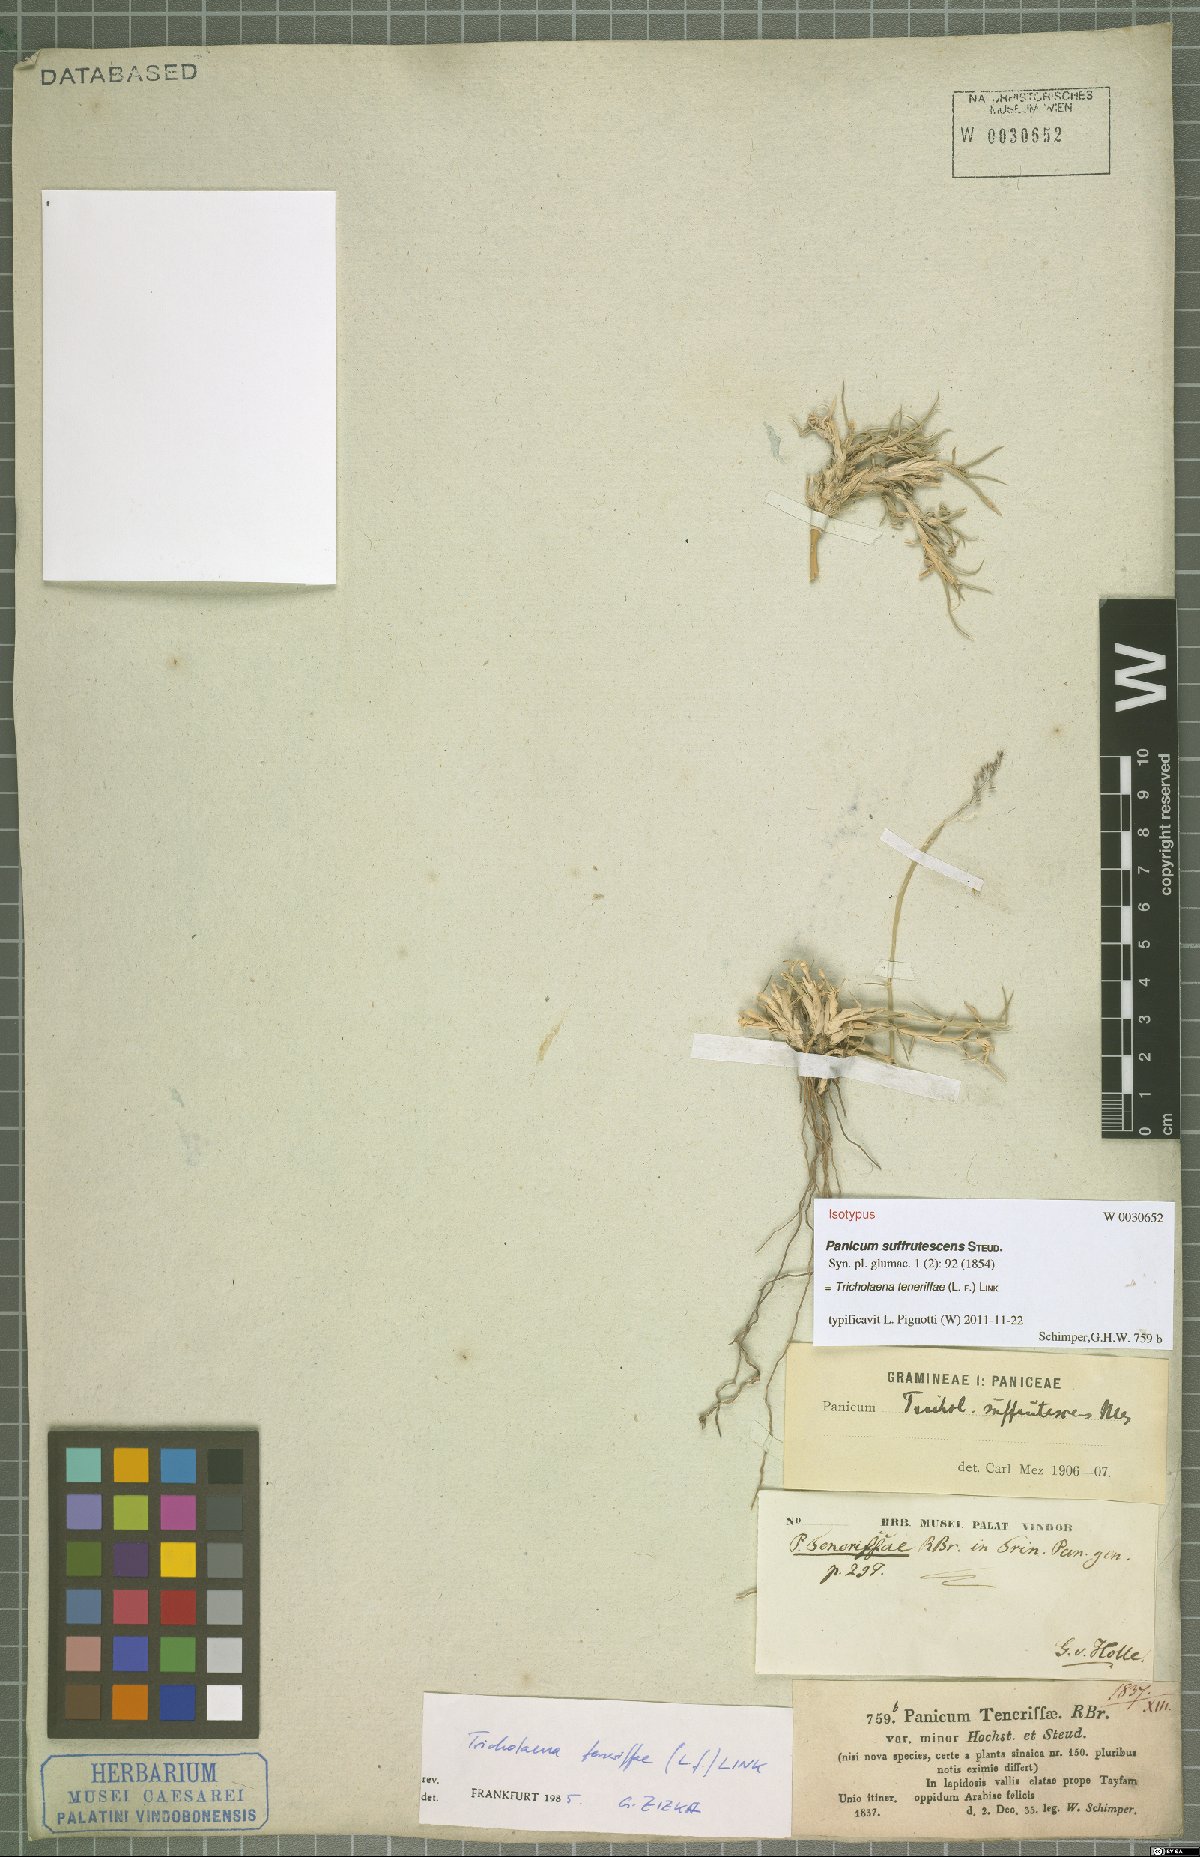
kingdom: Plantae
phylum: Tracheophyta
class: Liliopsida
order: Poales
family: Poaceae
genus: Tricholaena
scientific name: Tricholaena teneriffae
